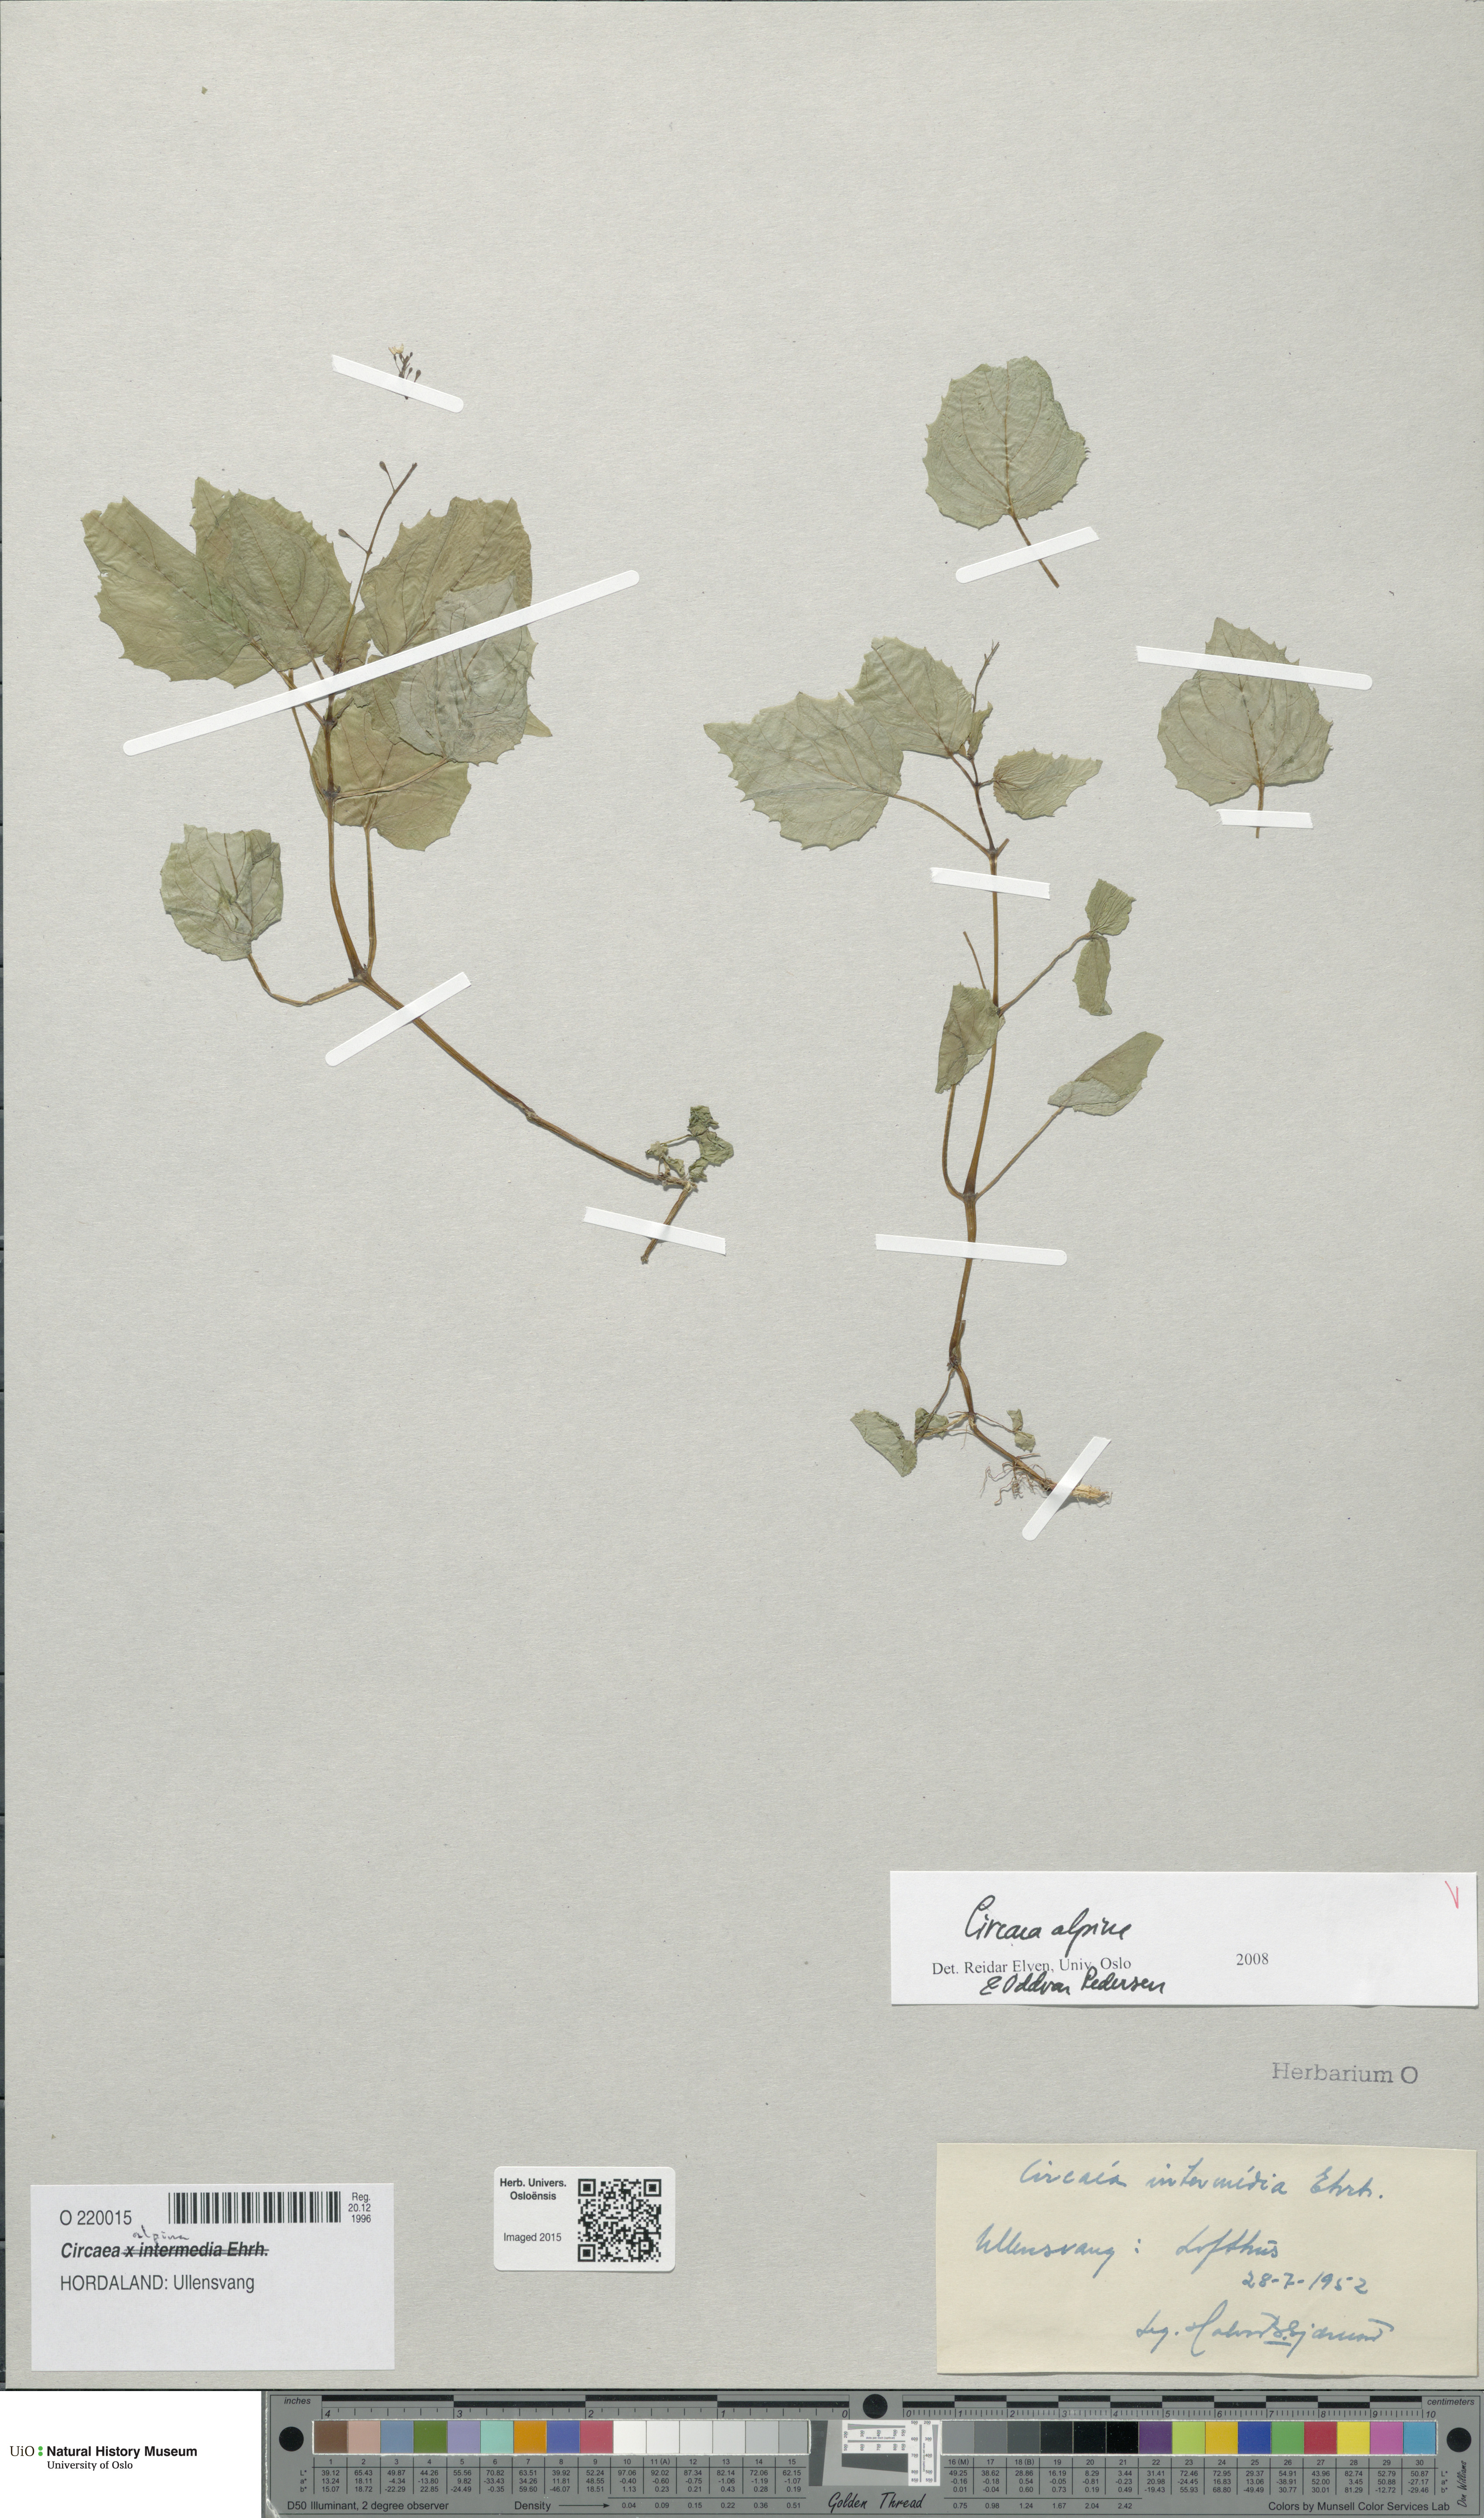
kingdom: Plantae
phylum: Tracheophyta
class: Magnoliopsida
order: Myrtales
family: Onagraceae
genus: Circaea
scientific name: Circaea alpina
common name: Alpine enchanter's-nightshade
